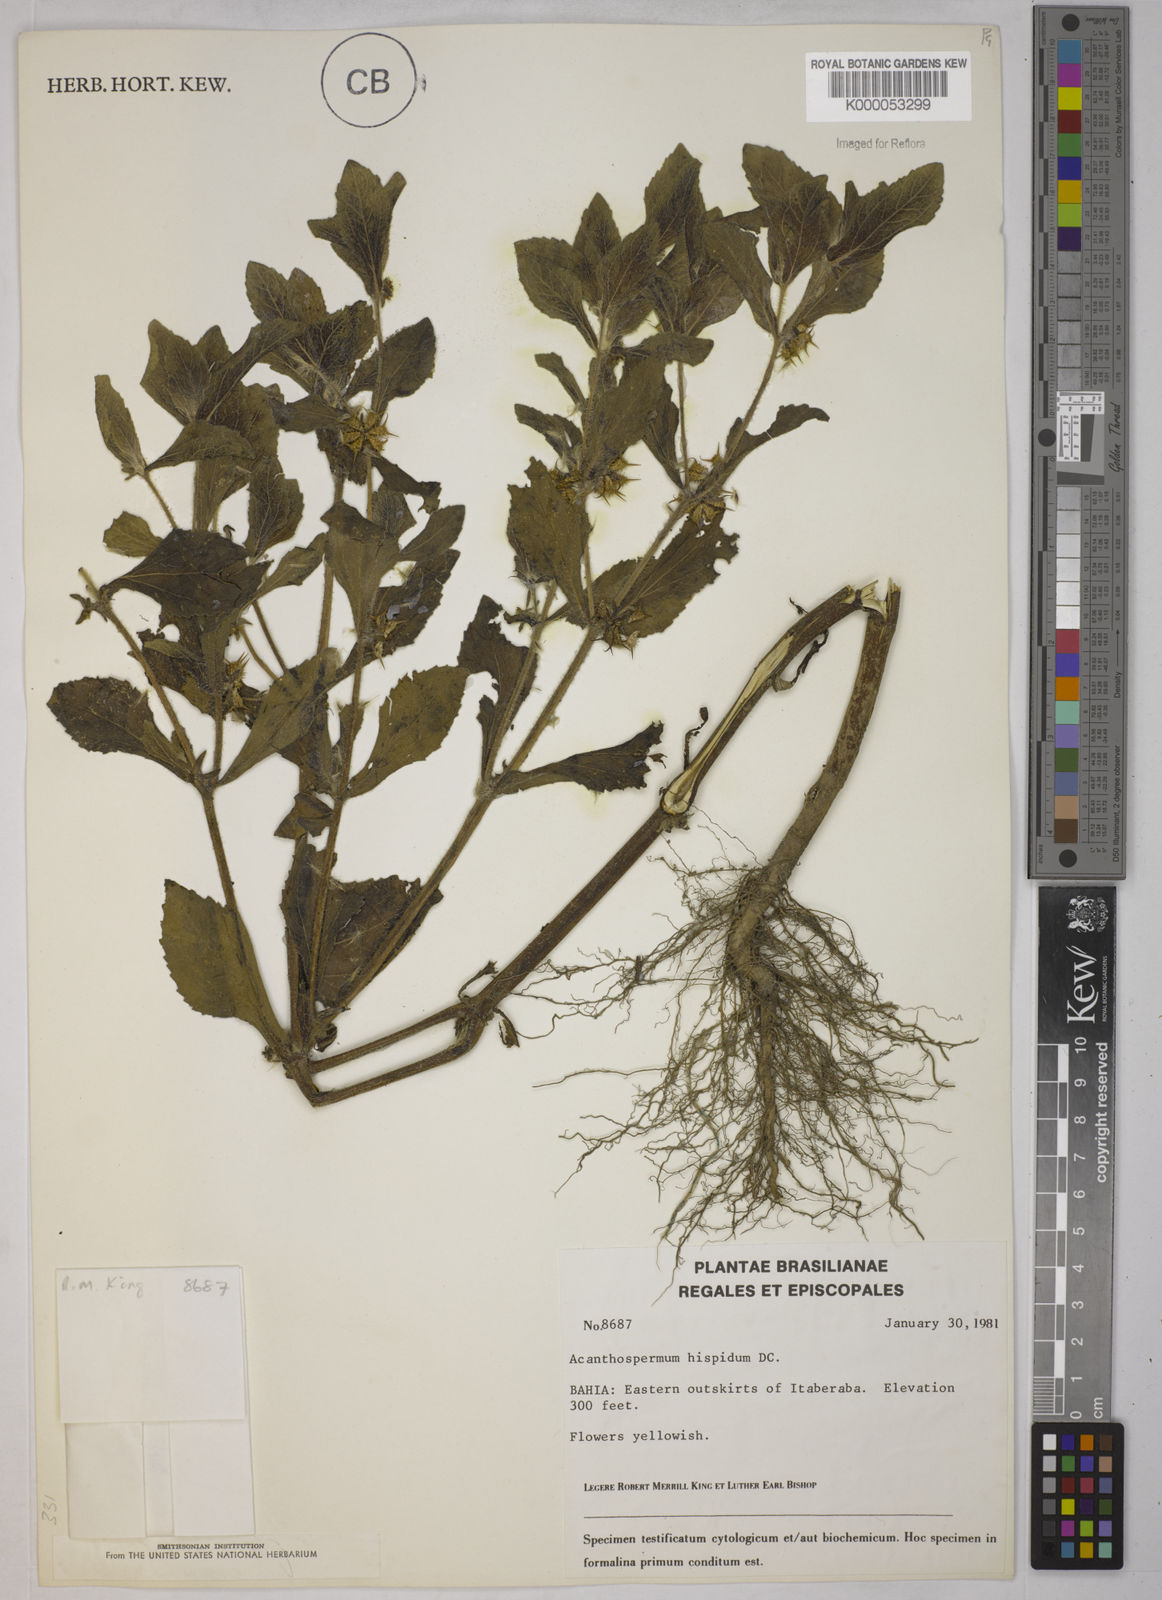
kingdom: Plantae
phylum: Tracheophyta
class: Magnoliopsida
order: Asterales
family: Asteraceae
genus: Acanthospermum
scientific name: Acanthospermum hispidum
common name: Hispid starbur
